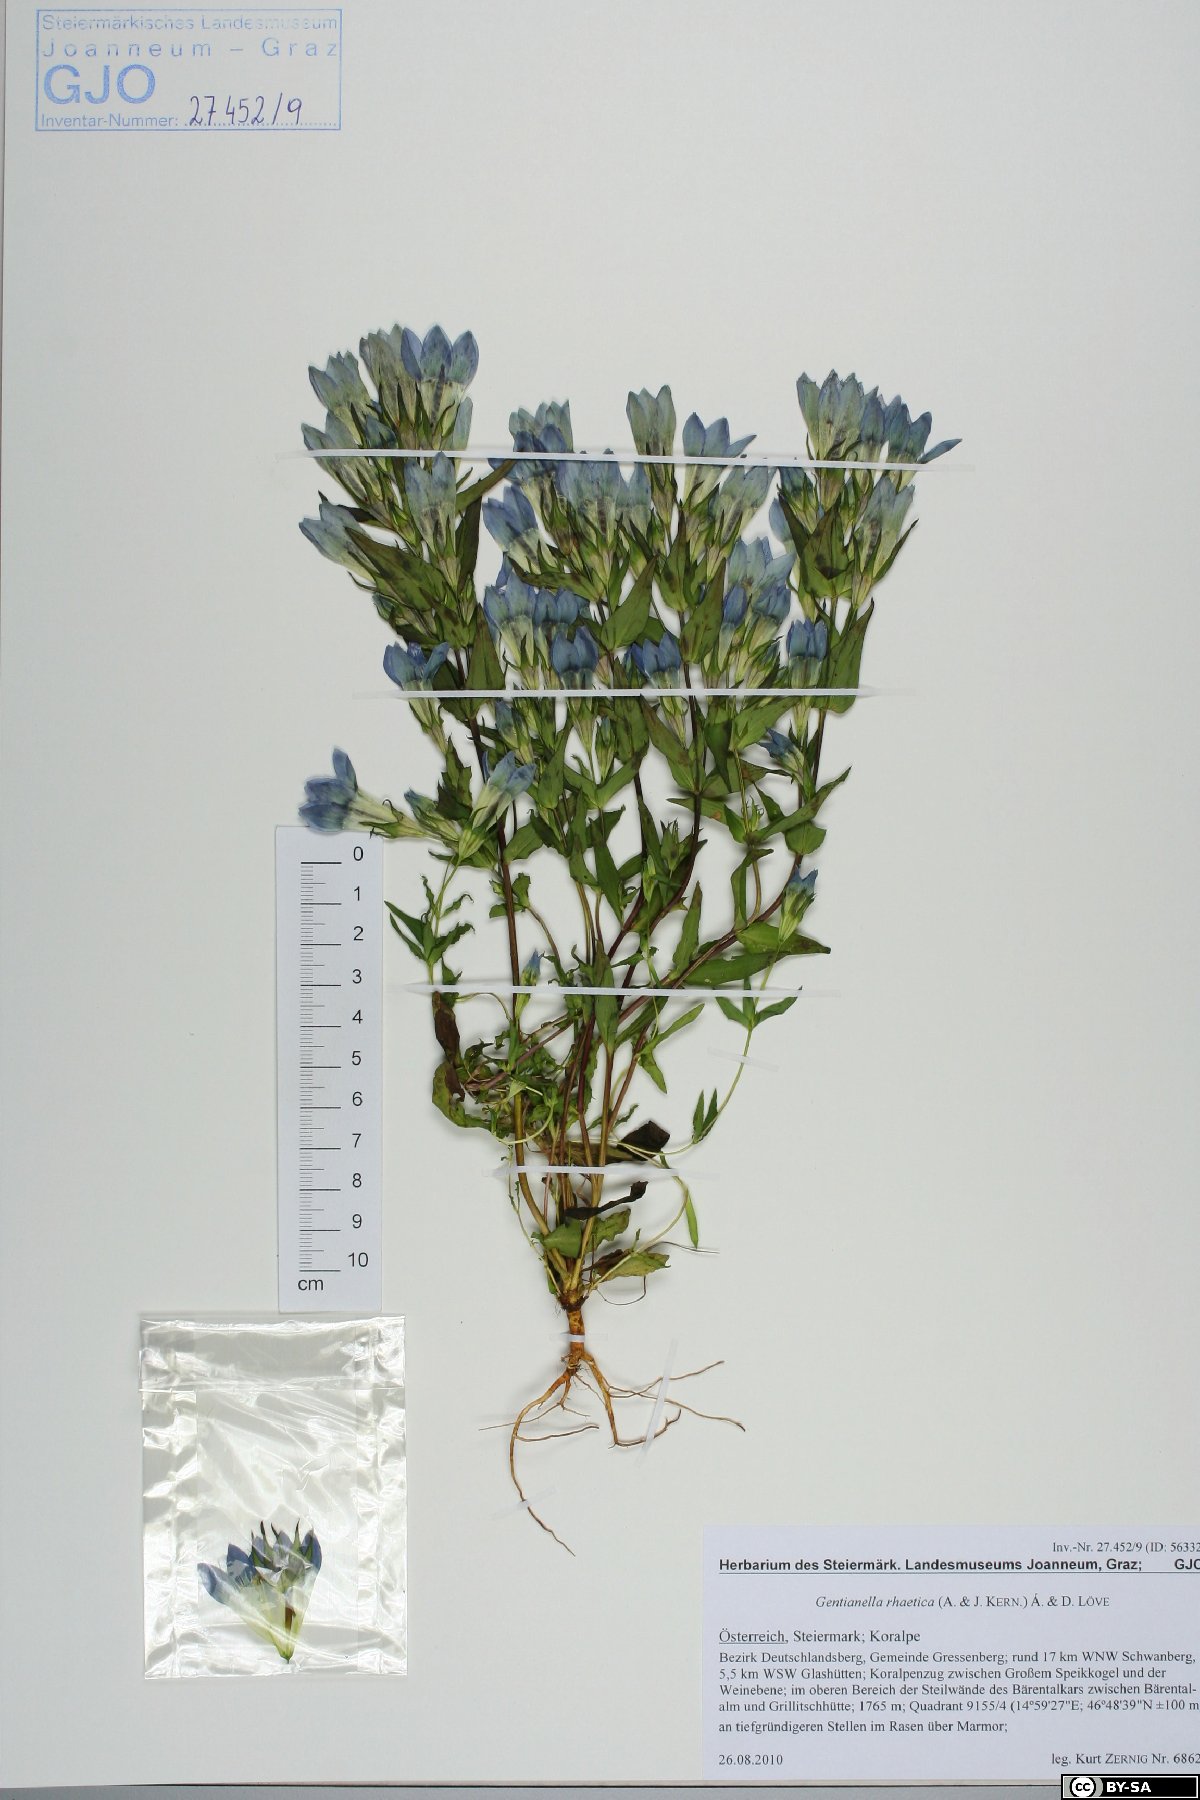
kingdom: Plantae
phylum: Tracheophyta
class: Magnoliopsida
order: Gentianales
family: Gentianaceae
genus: Gentianella
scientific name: Gentianella rhaetica
